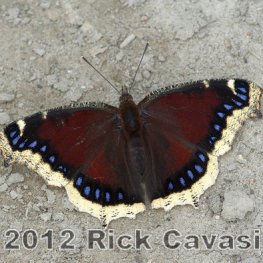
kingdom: Animalia
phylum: Arthropoda
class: Insecta
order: Lepidoptera
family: Nymphalidae
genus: Nymphalis
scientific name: Nymphalis antiopa
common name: Mourning Cloak
